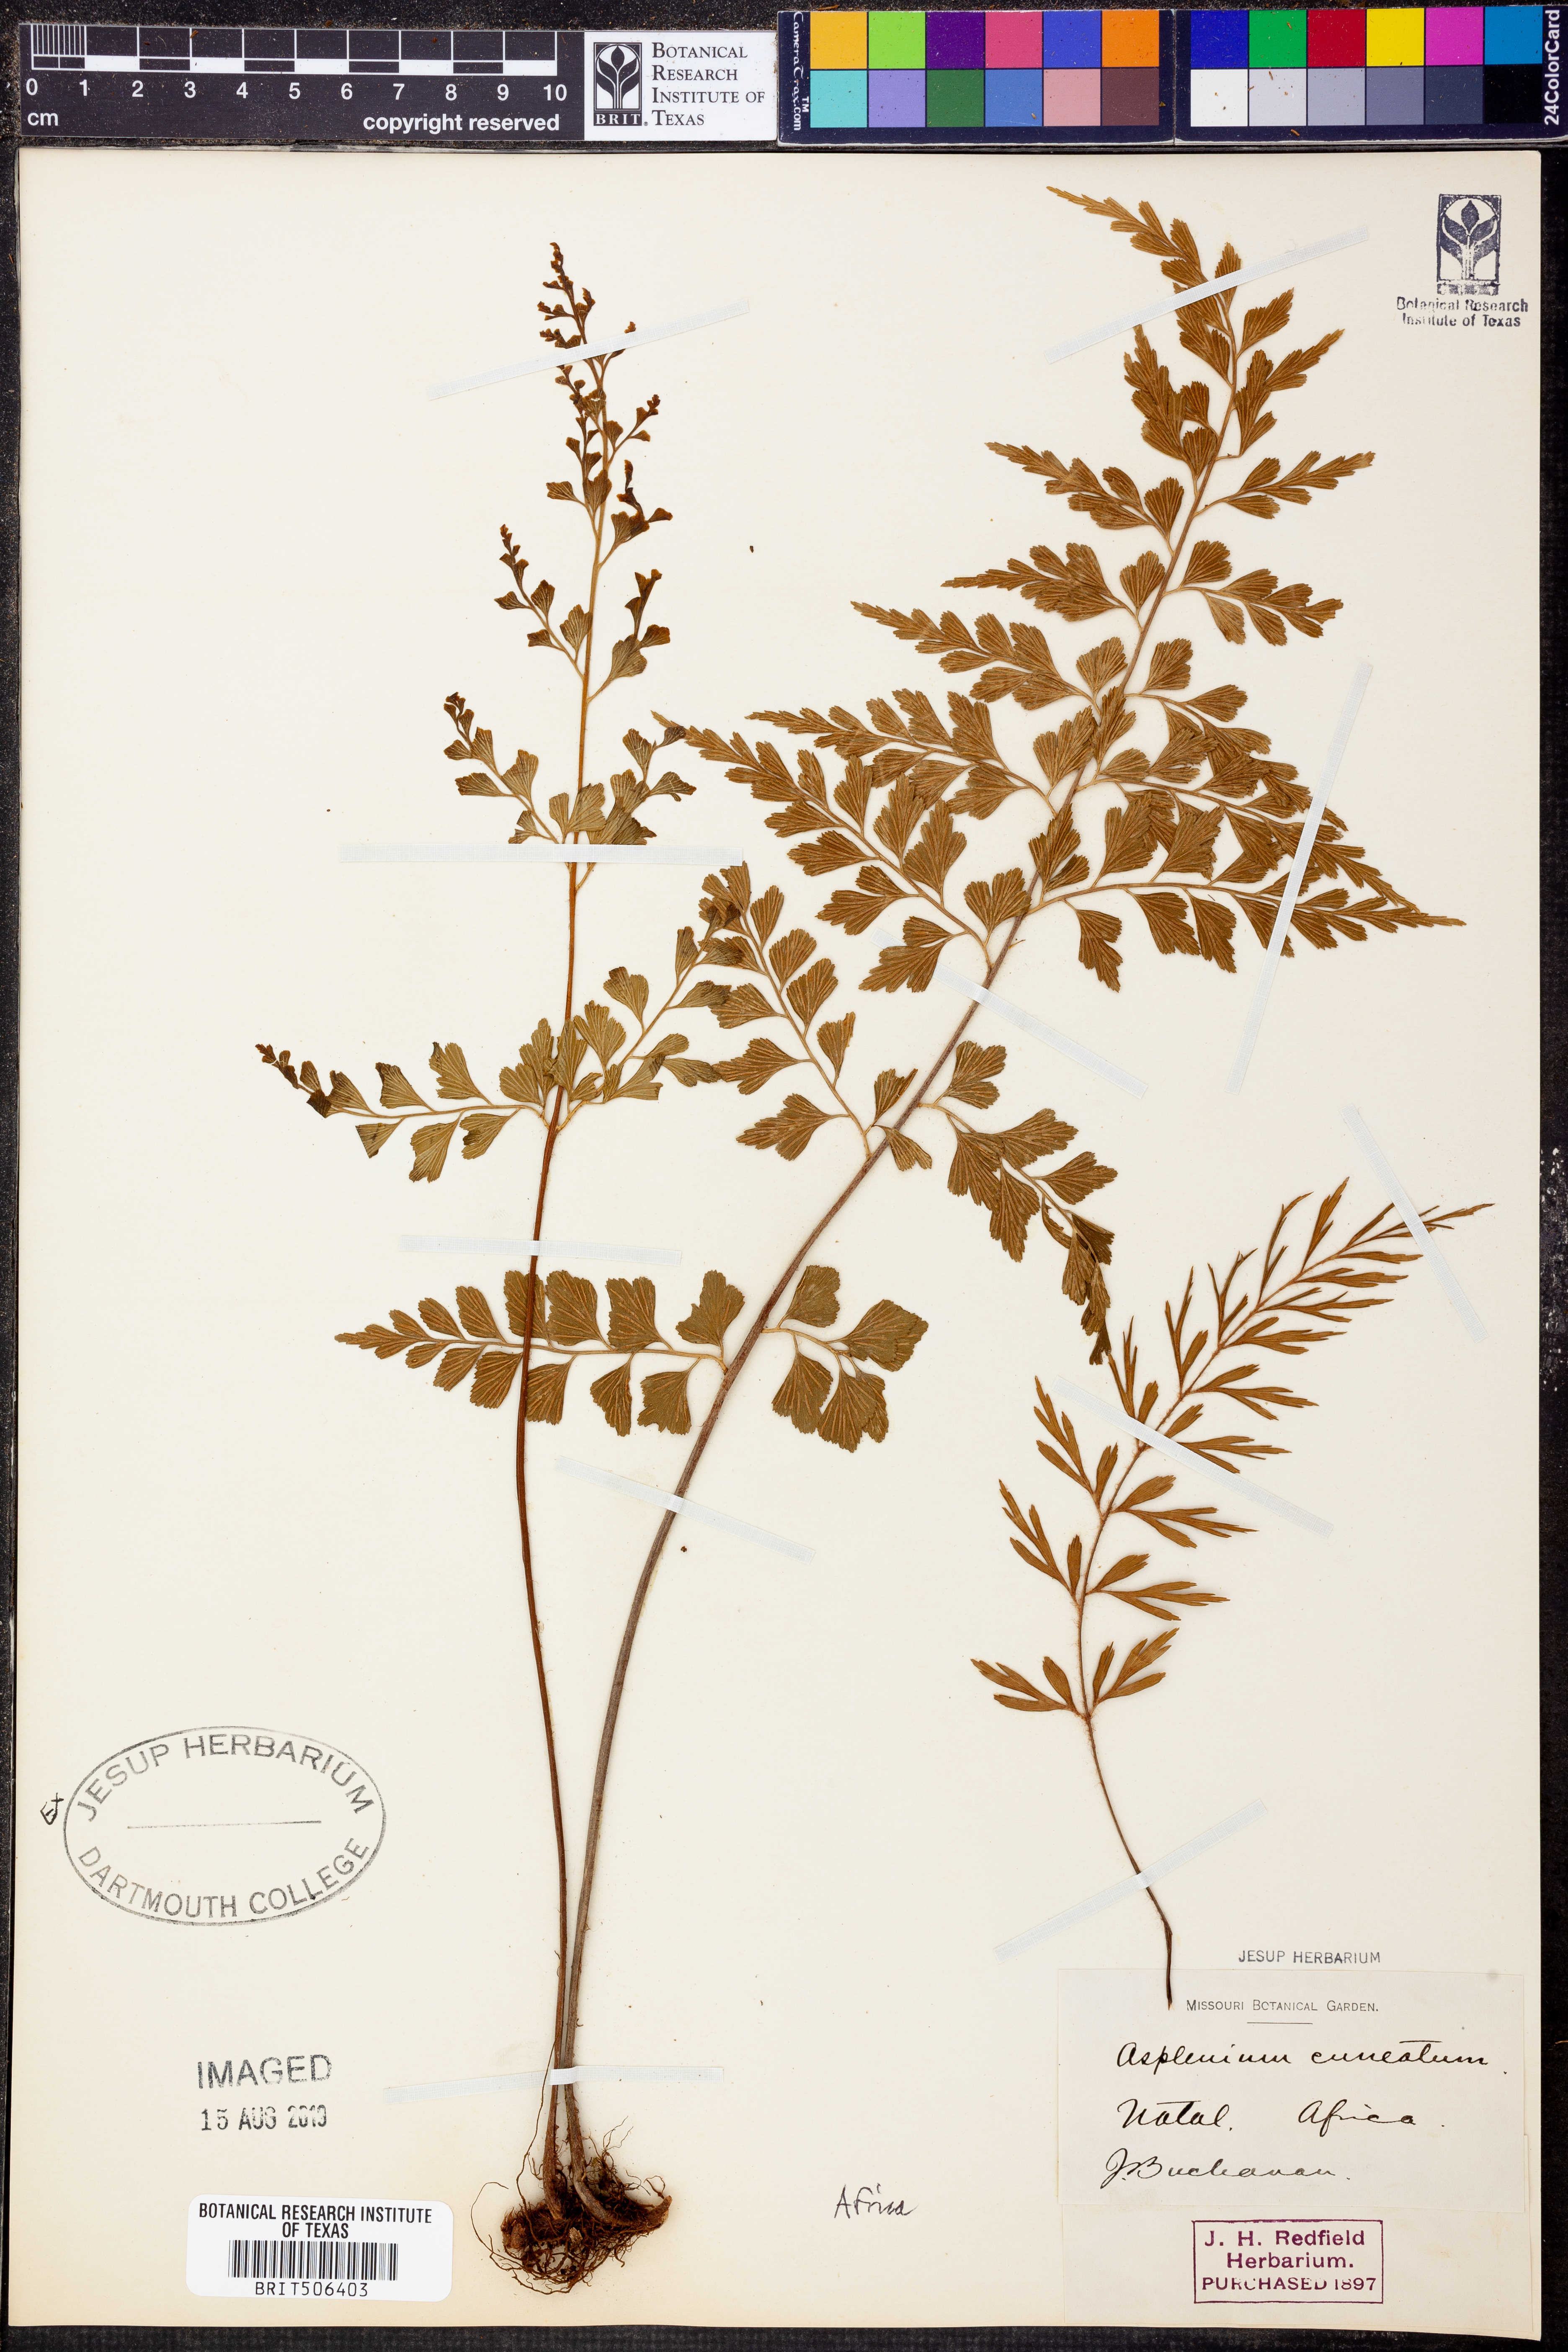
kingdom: Plantae
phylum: Tracheophyta
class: Polypodiopsida
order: Polypodiales
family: Aspleniaceae
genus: Asplenium
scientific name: Asplenium cuneatum
